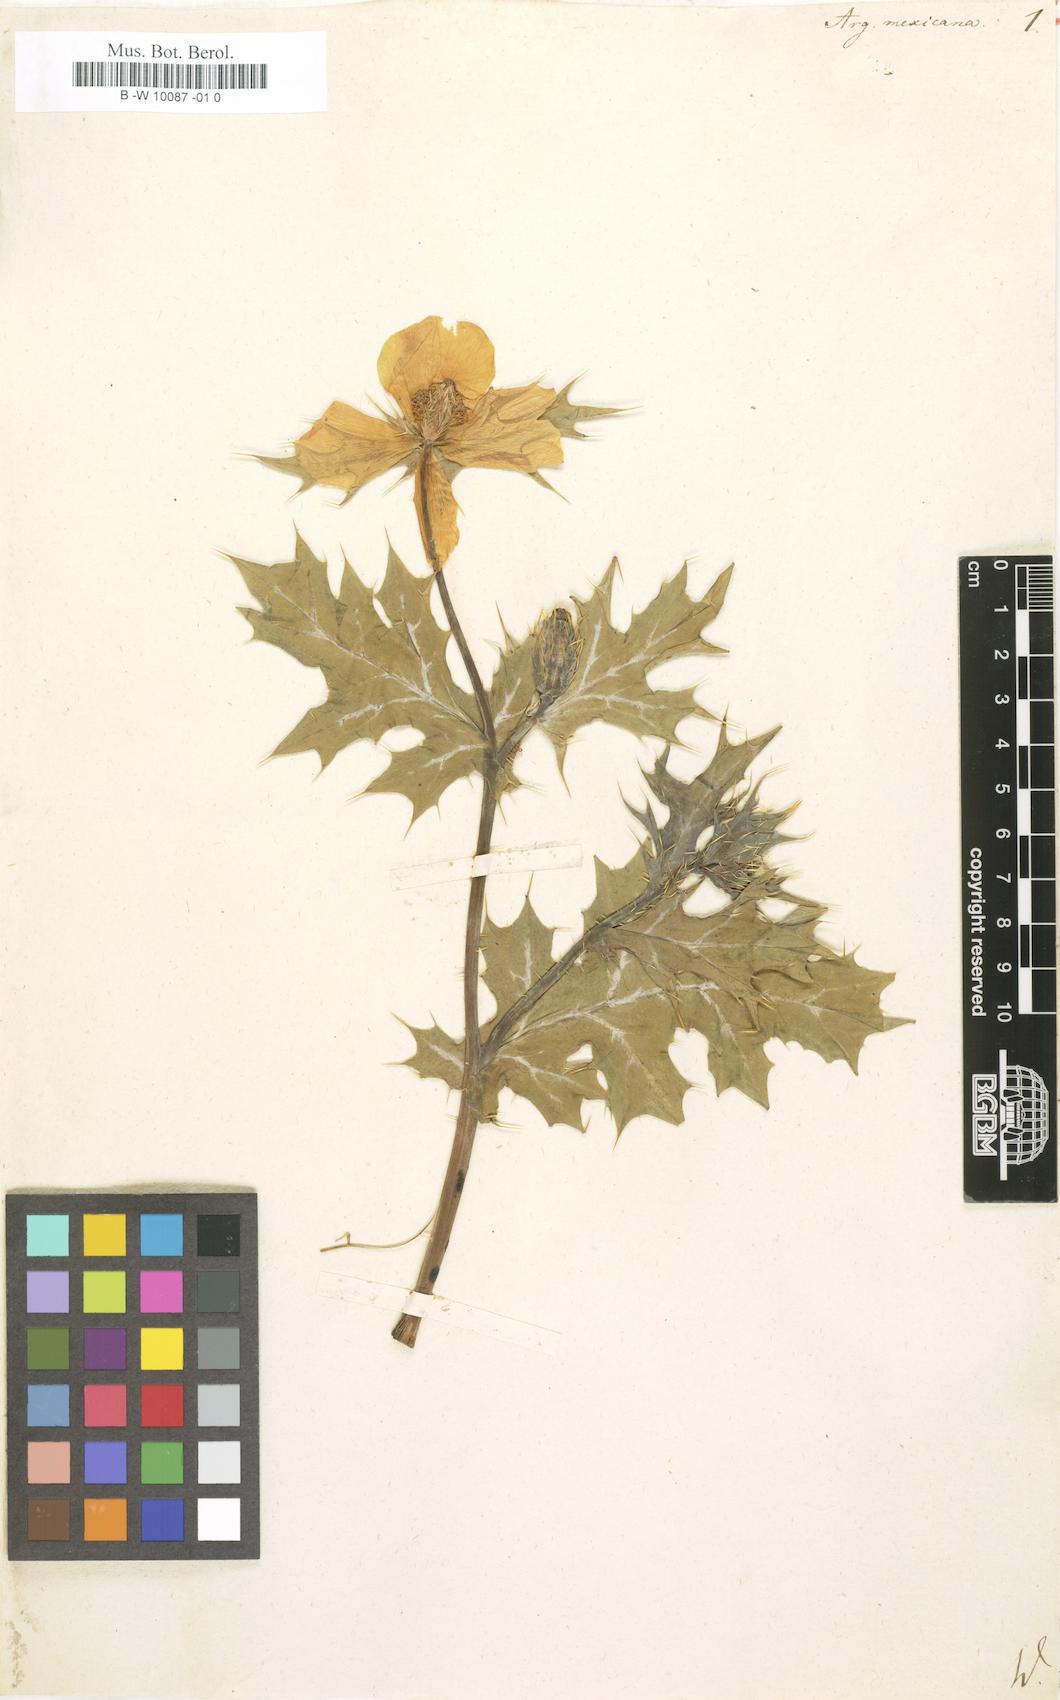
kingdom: Plantae
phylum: Tracheophyta
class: Magnoliopsida
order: Ranunculales
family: Papaveraceae
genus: Argemone
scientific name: Argemone mexicana
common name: Mexican poppy
